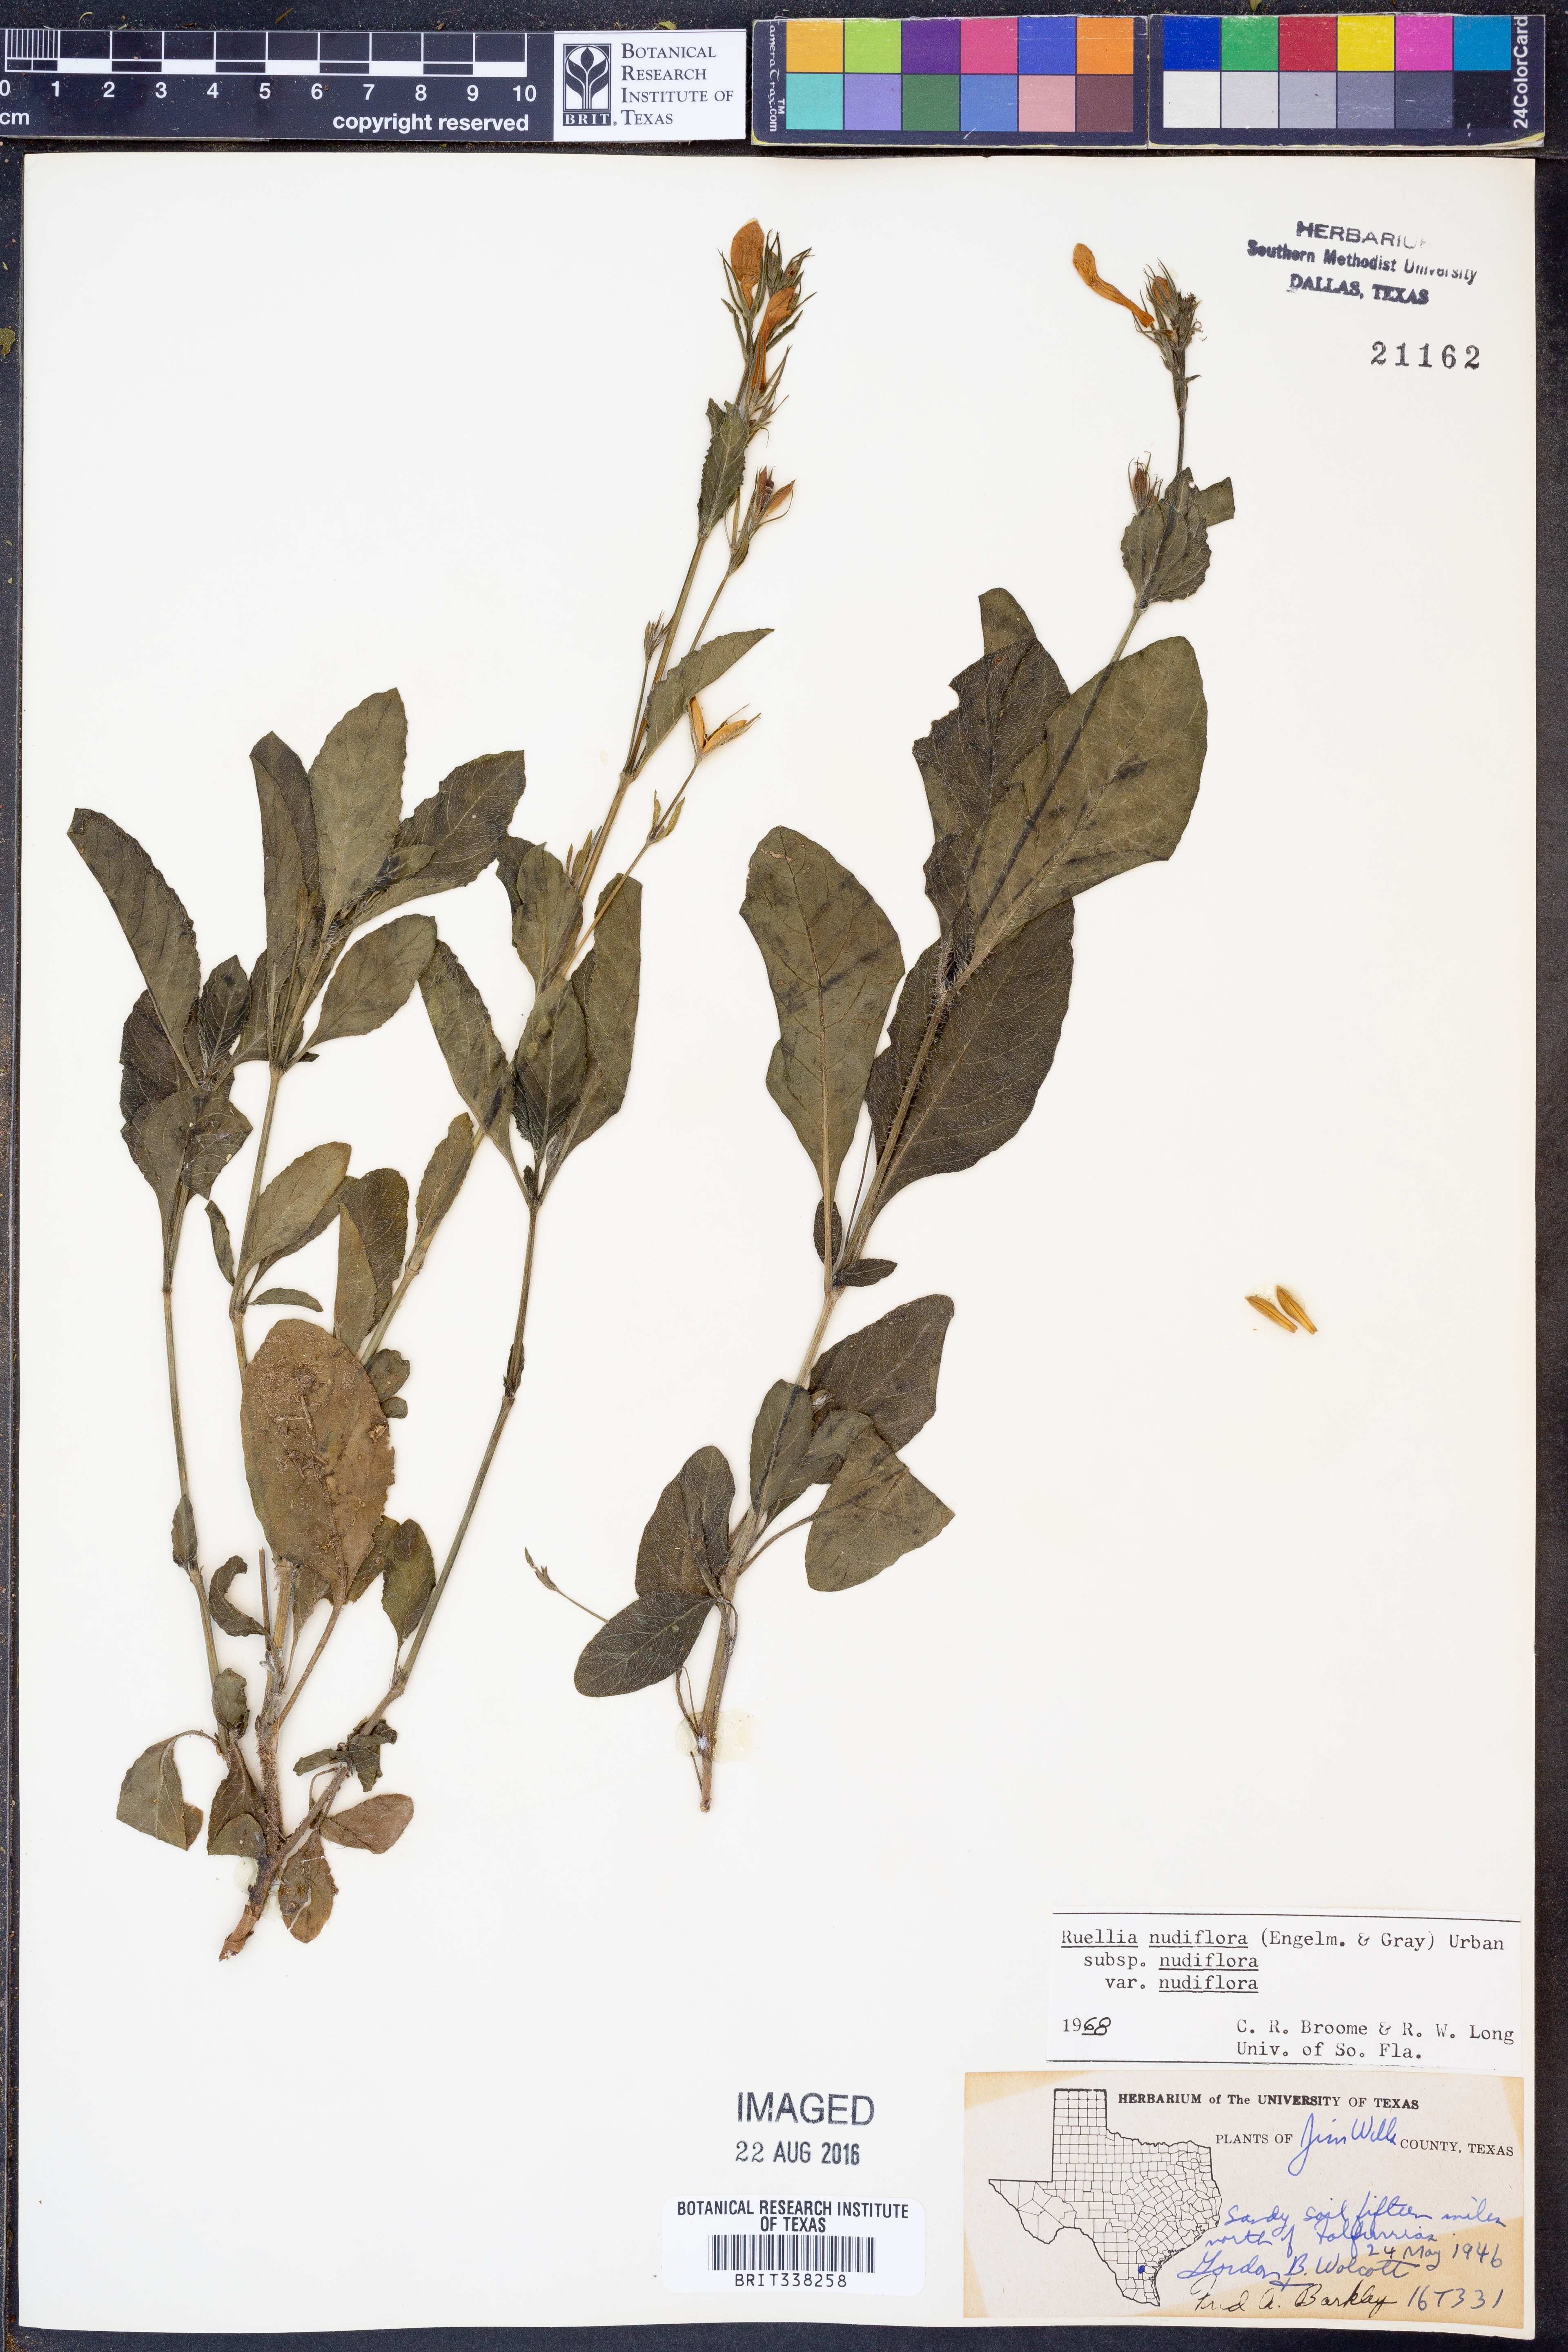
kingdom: Plantae
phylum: Tracheophyta
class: Magnoliopsida
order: Lamiales
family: Acanthaceae
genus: Ruellia
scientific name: Ruellia ciliatiflora
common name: Hairyflower wild petunia
